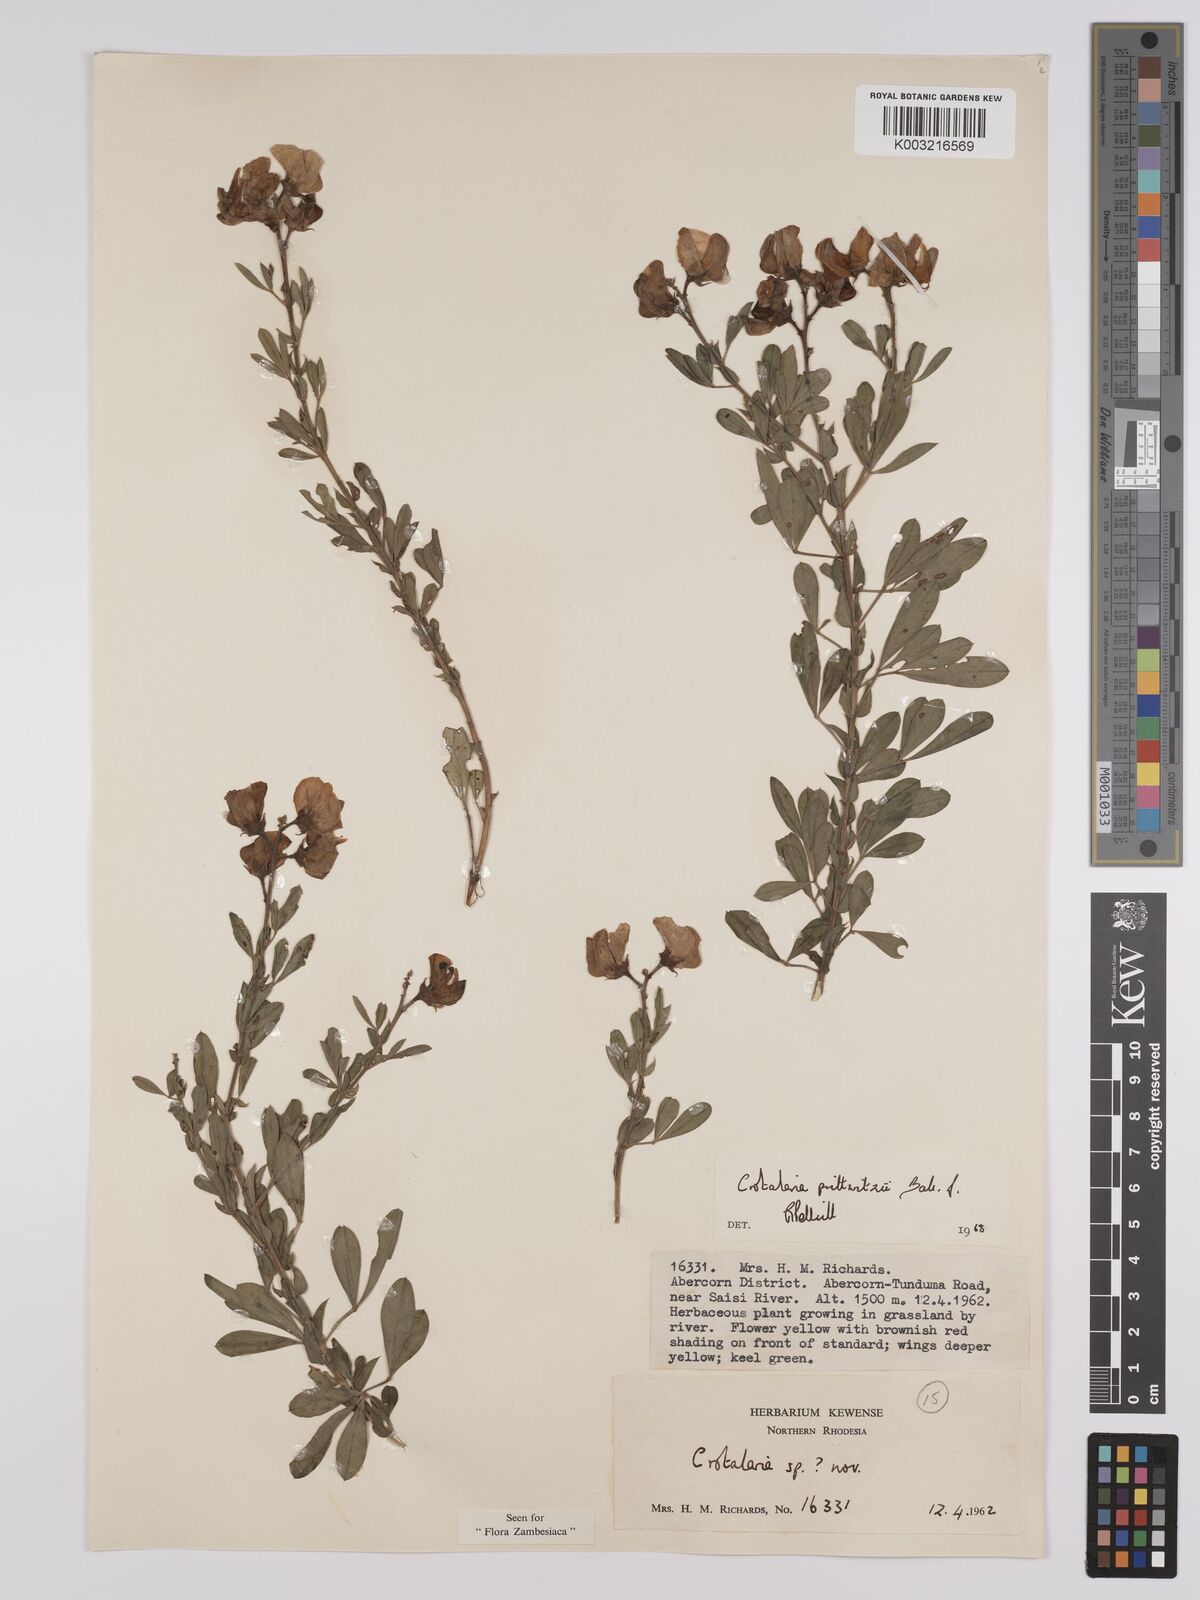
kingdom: Plantae
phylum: Tracheophyta
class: Magnoliopsida
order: Fabales
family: Fabaceae
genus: Crotalaria
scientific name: Crotalaria prittwitzii
